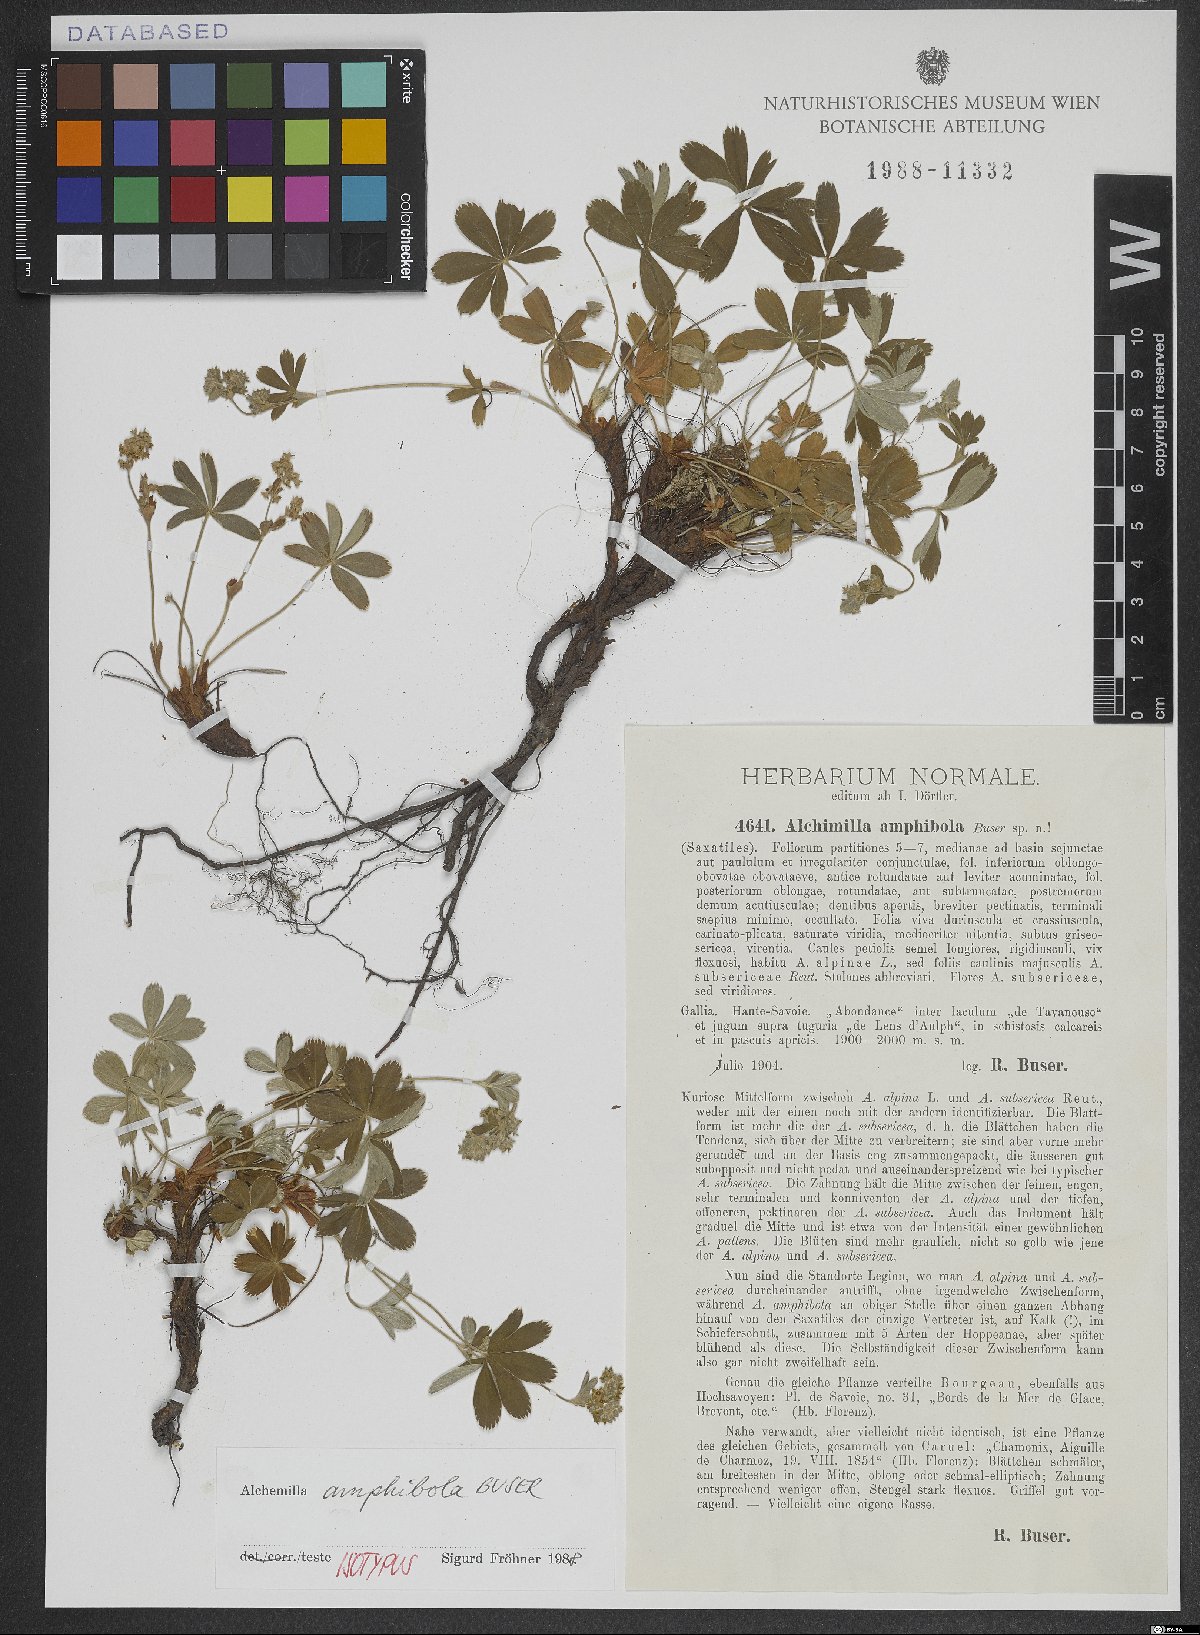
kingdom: Plantae
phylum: Tracheophyta
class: Magnoliopsida
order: Rosales
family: Rosaceae
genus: Alchemilla
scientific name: Alchemilla amphibola
